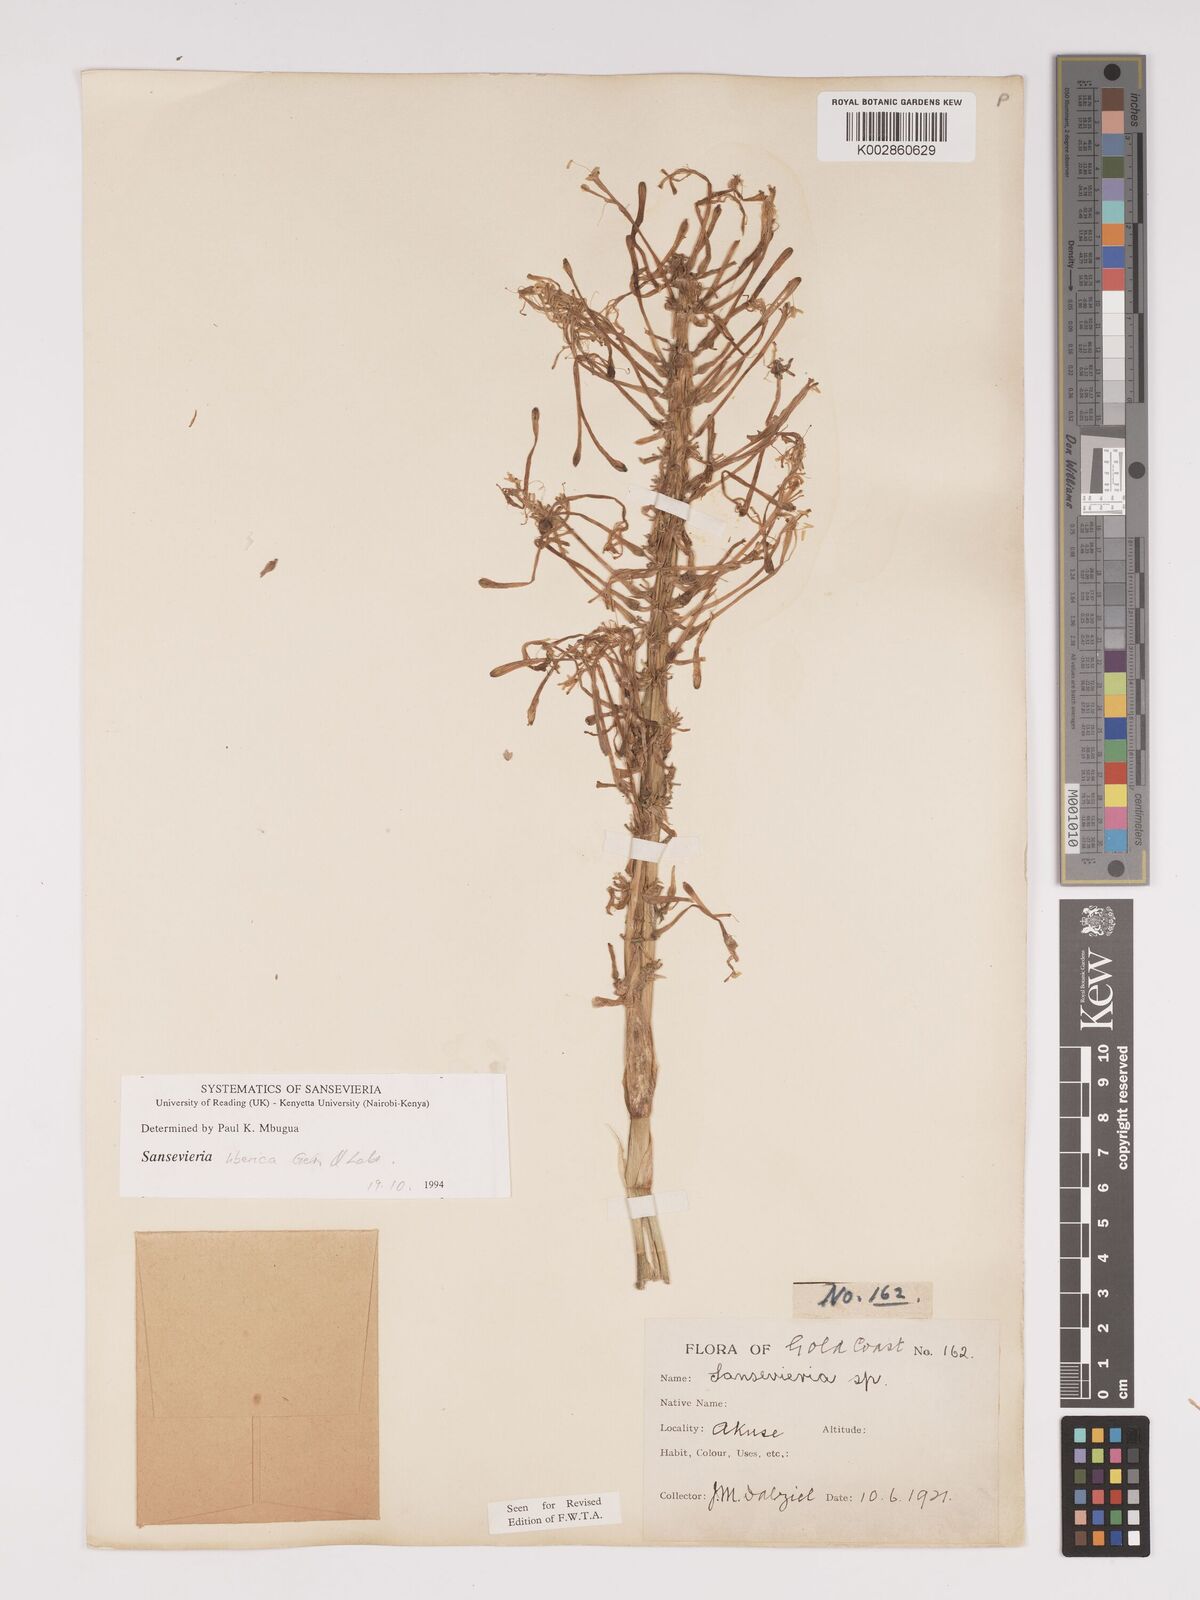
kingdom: Plantae
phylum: Tracheophyta
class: Liliopsida
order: Asparagales
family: Asparagaceae
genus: Dracaena
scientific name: Dracaena liberica
